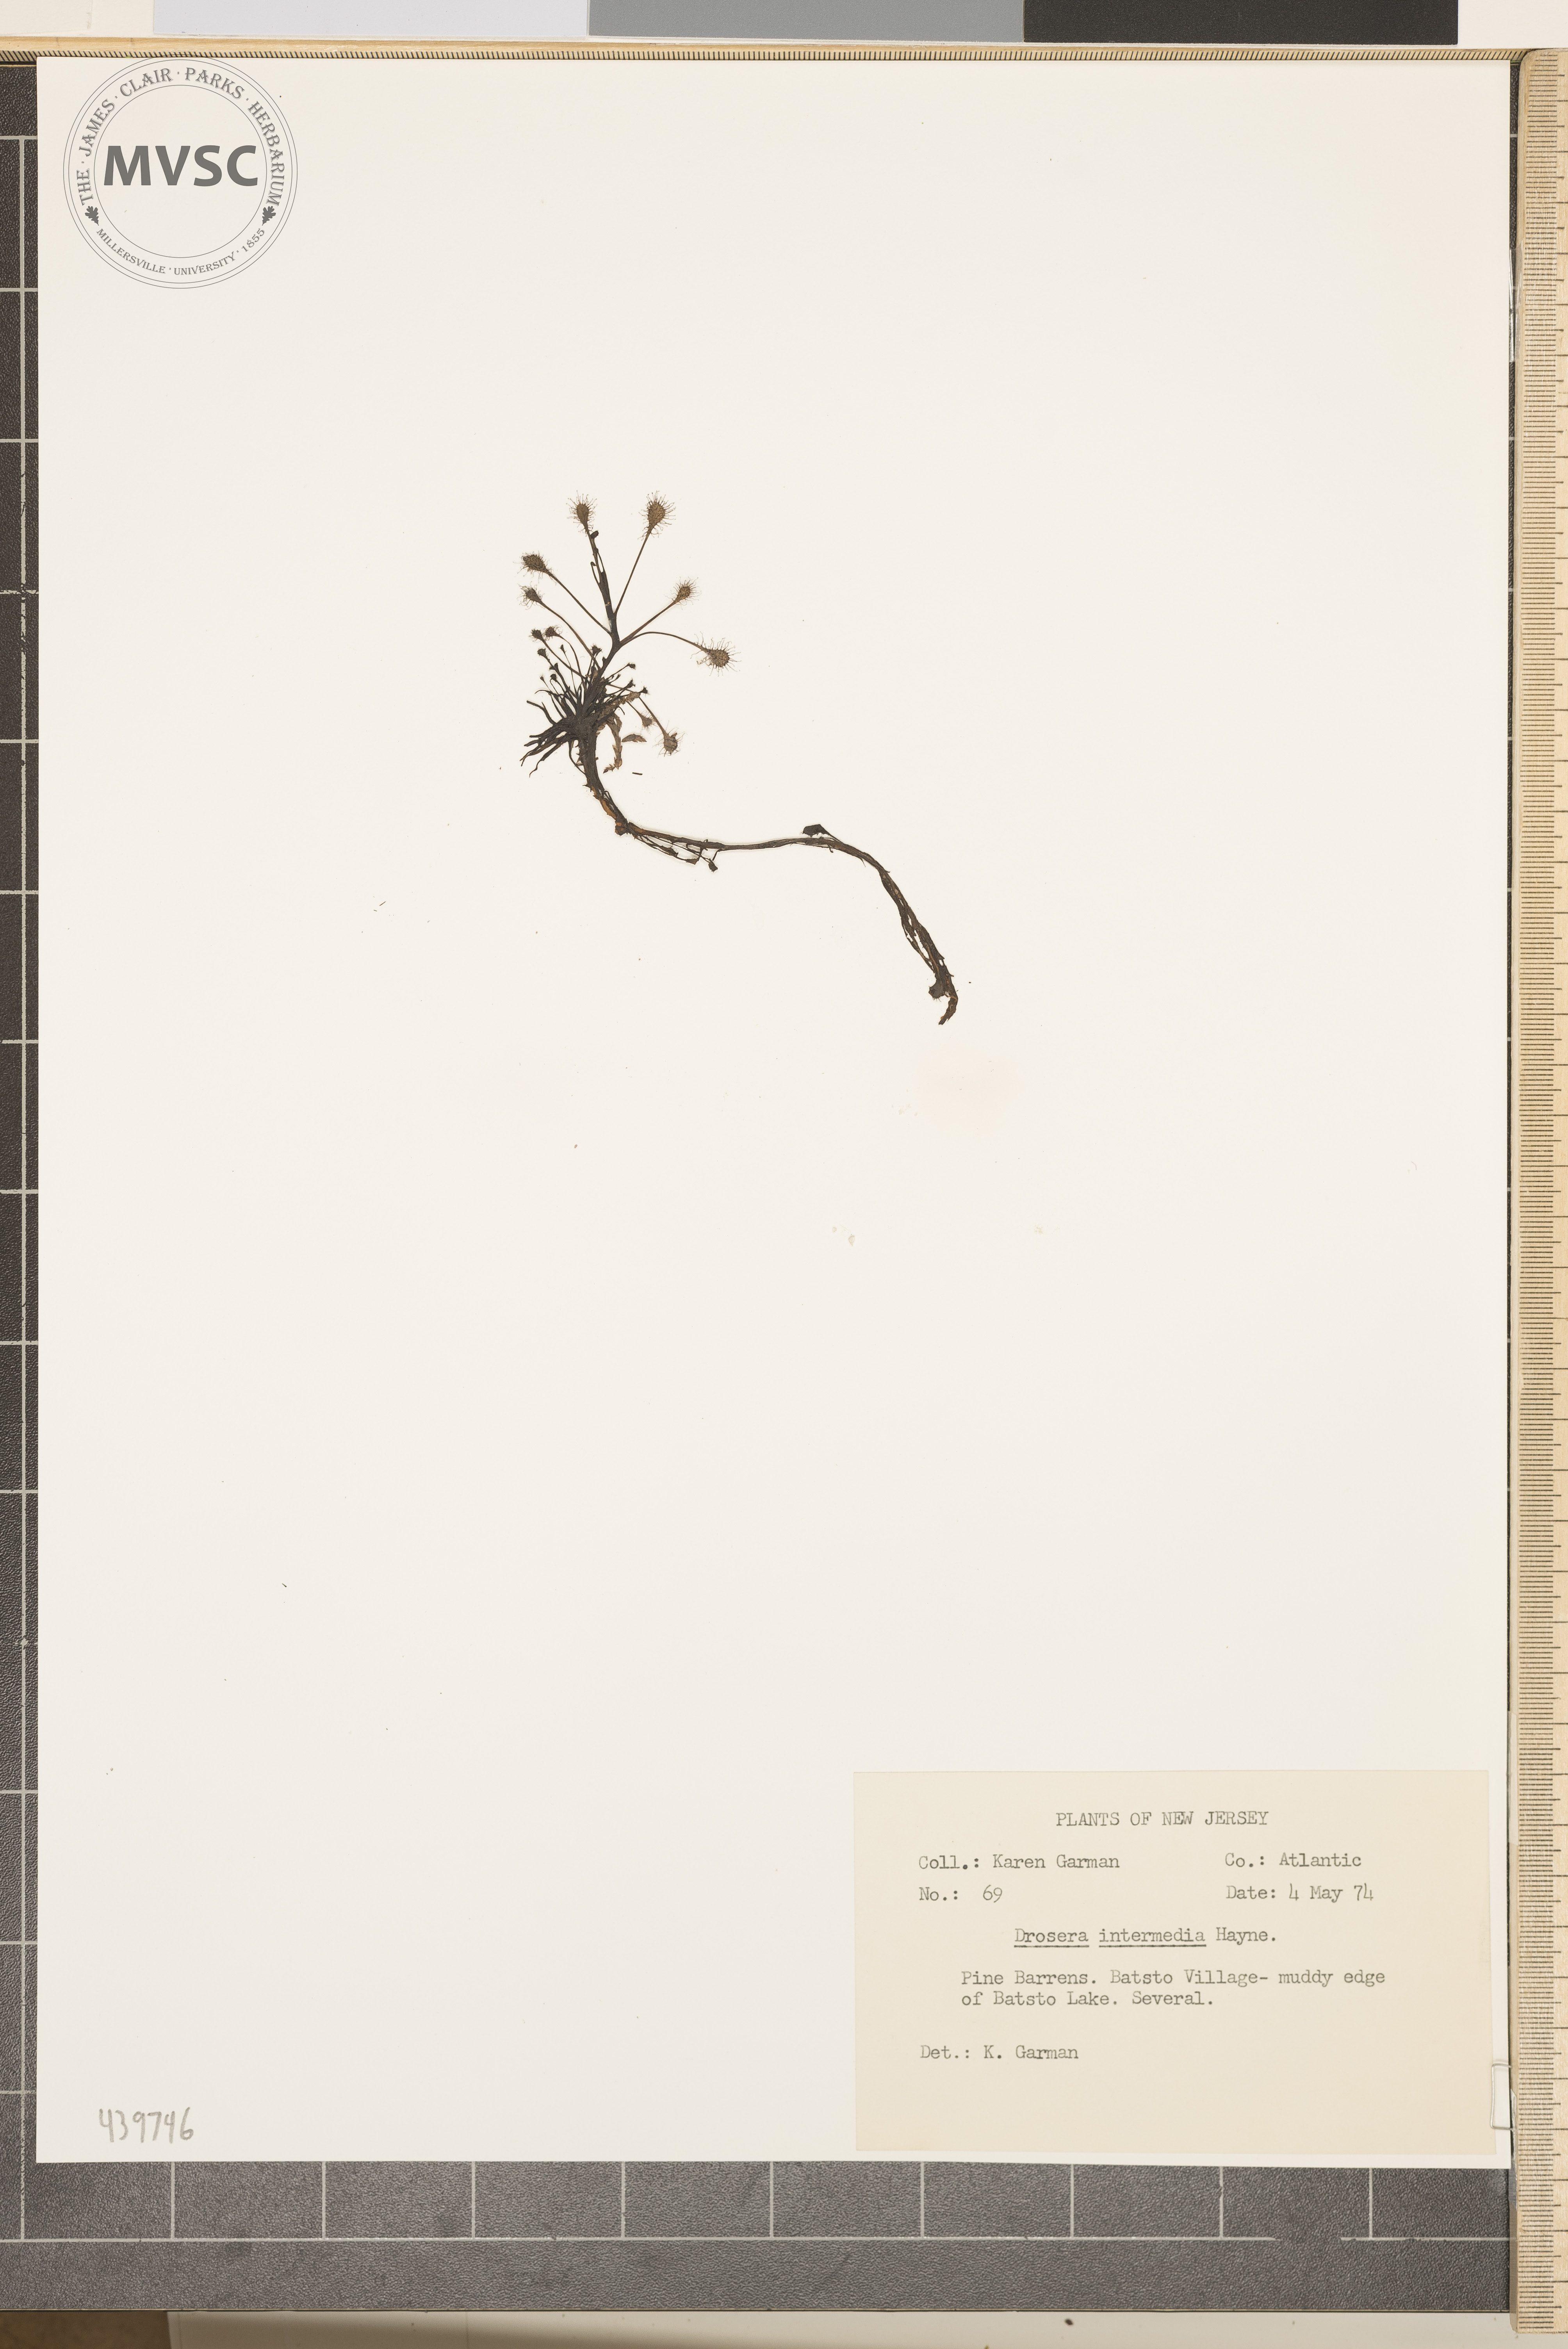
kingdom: Plantae
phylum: Tracheophyta
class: Magnoliopsida
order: Caryophyllales
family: Droseraceae
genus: Drosera
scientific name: Drosera intermedia
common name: Oblong-leaved sundew
